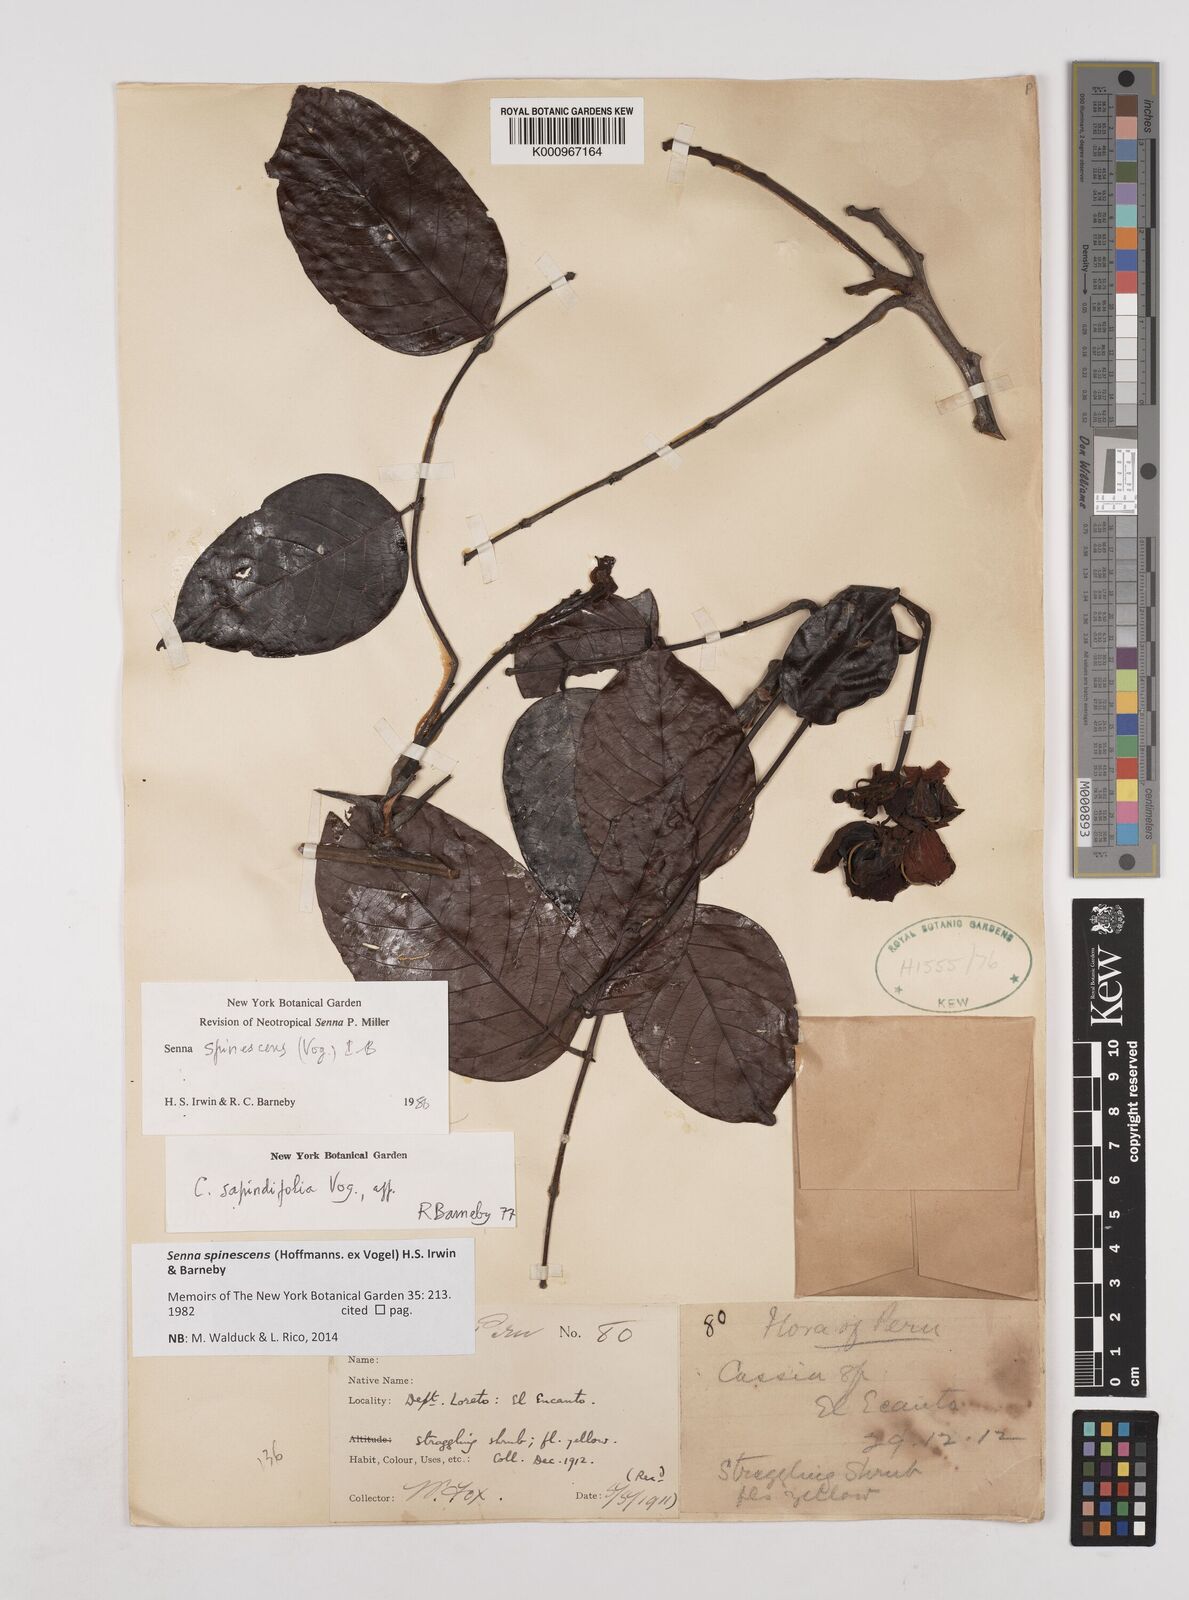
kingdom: Plantae
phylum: Tracheophyta
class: Magnoliopsida
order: Fabales
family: Fabaceae
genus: Senna
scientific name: Senna spinescens
